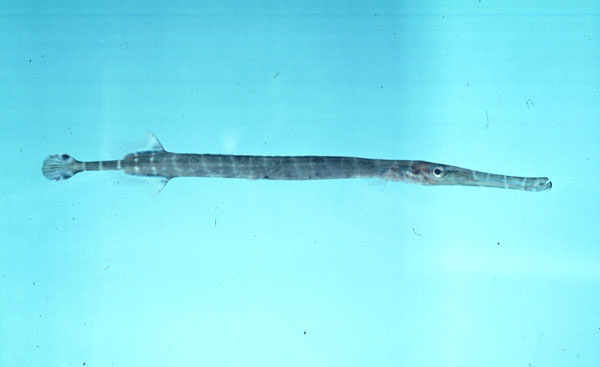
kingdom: Animalia
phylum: Chordata
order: Syngnathiformes
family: Aulostomidae
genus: Aulostomus
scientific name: Aulostomus chinensis
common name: Chinese trumpetfish
